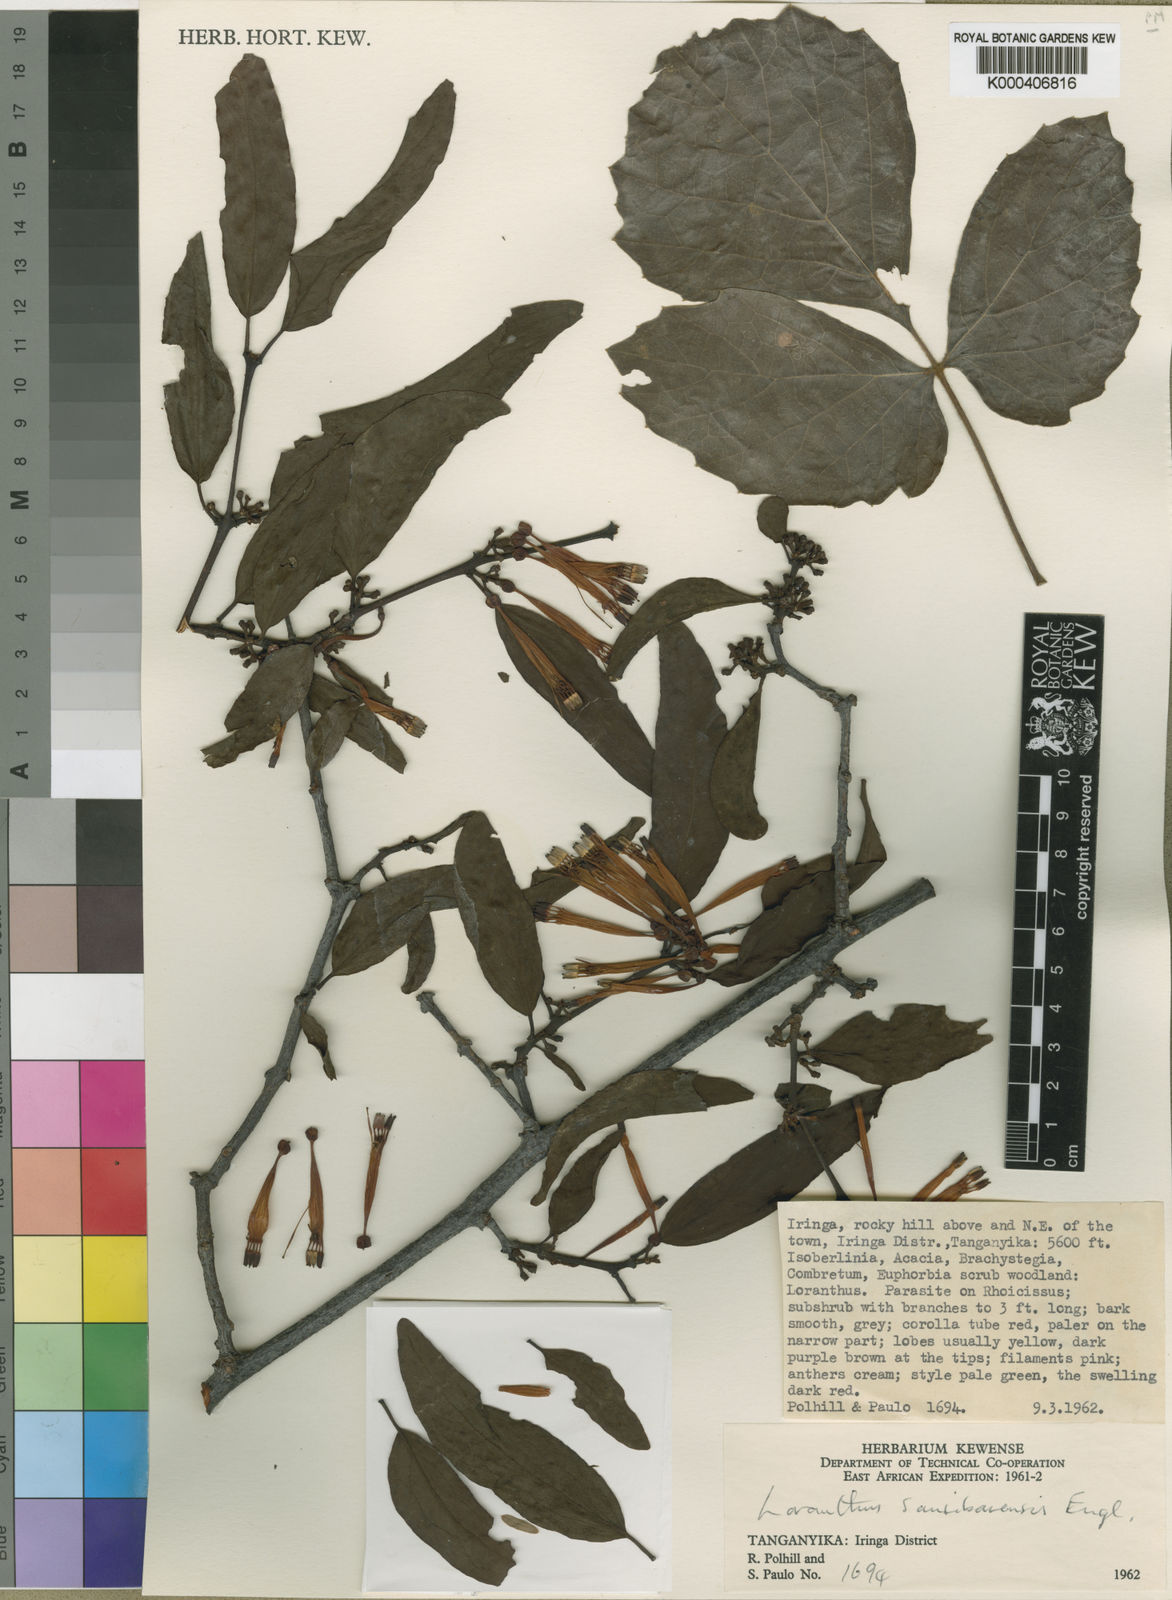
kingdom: Plantae
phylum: Tracheophyta
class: Magnoliopsida
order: Santalales
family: Loranthaceae
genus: Agelanthus
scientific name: Agelanthus atrocoronatus
